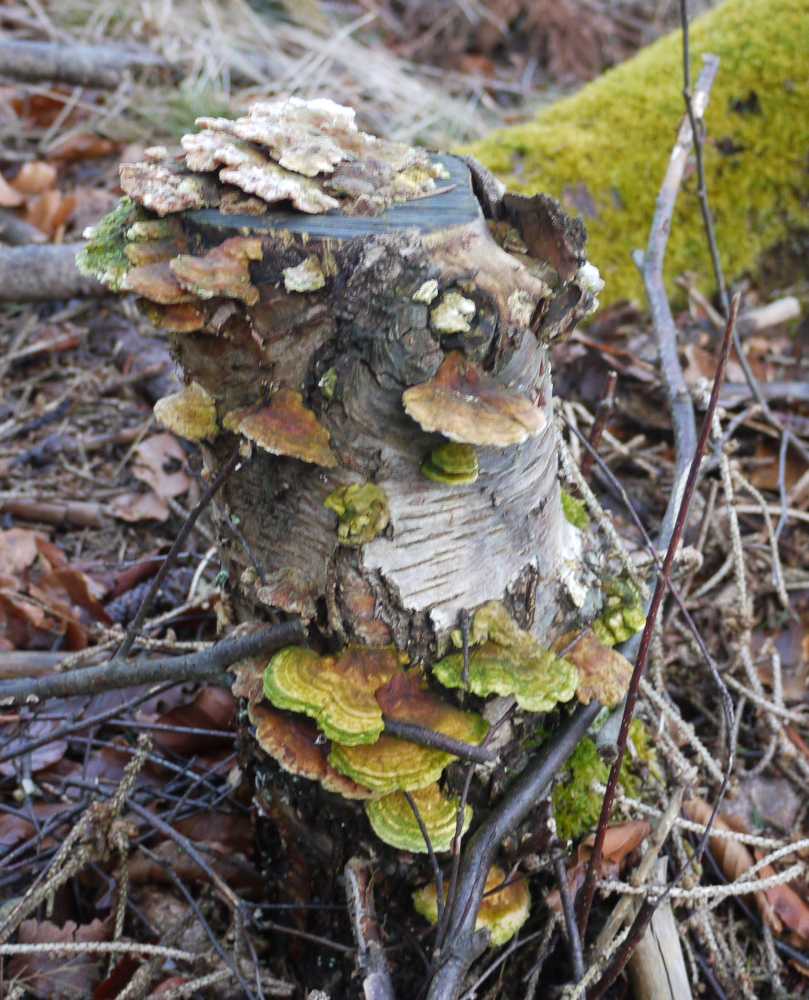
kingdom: Fungi
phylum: Basidiomycota
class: Agaricomycetes
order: Polyporales
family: Polyporaceae
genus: Trametes
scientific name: Trametes ochracea
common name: bæltet læderporesvamp
